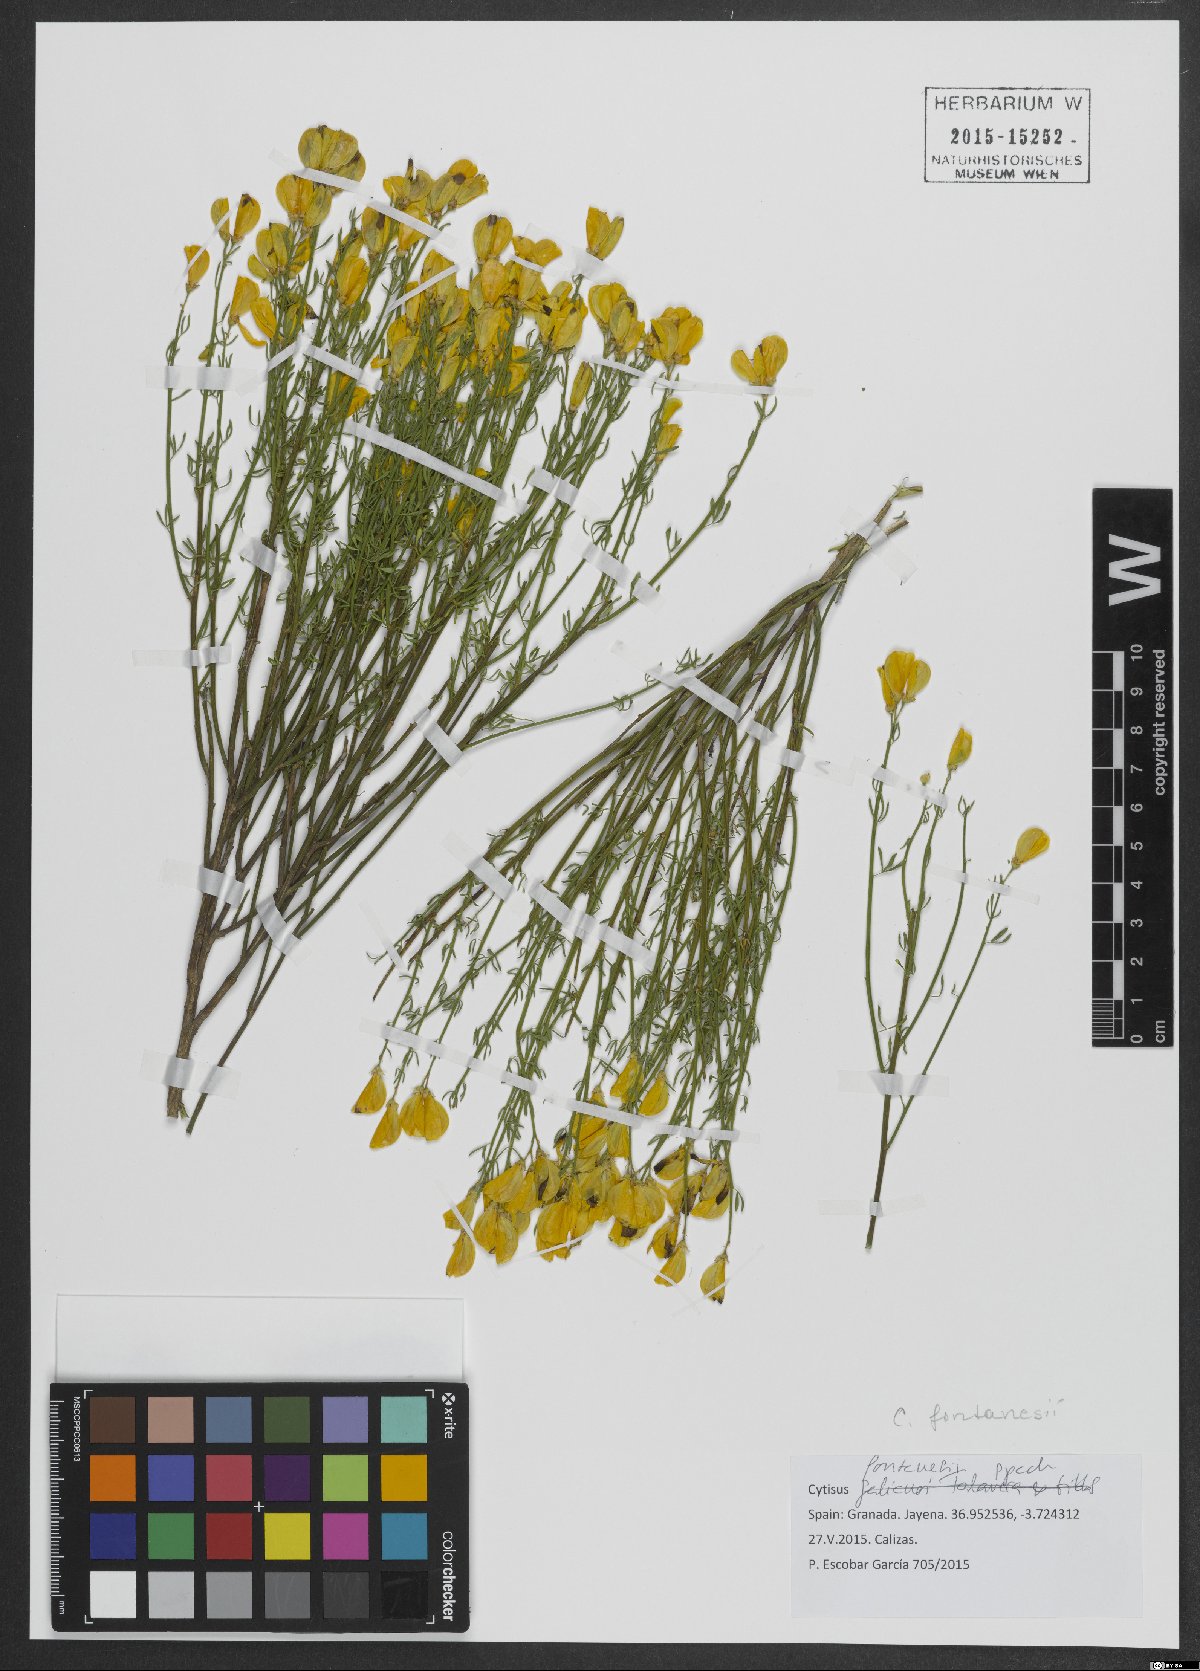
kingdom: Plantae
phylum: Tracheophyta
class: Magnoliopsida
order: Fabales
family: Fabaceae
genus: Cytisus
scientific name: Cytisus fontanesii
